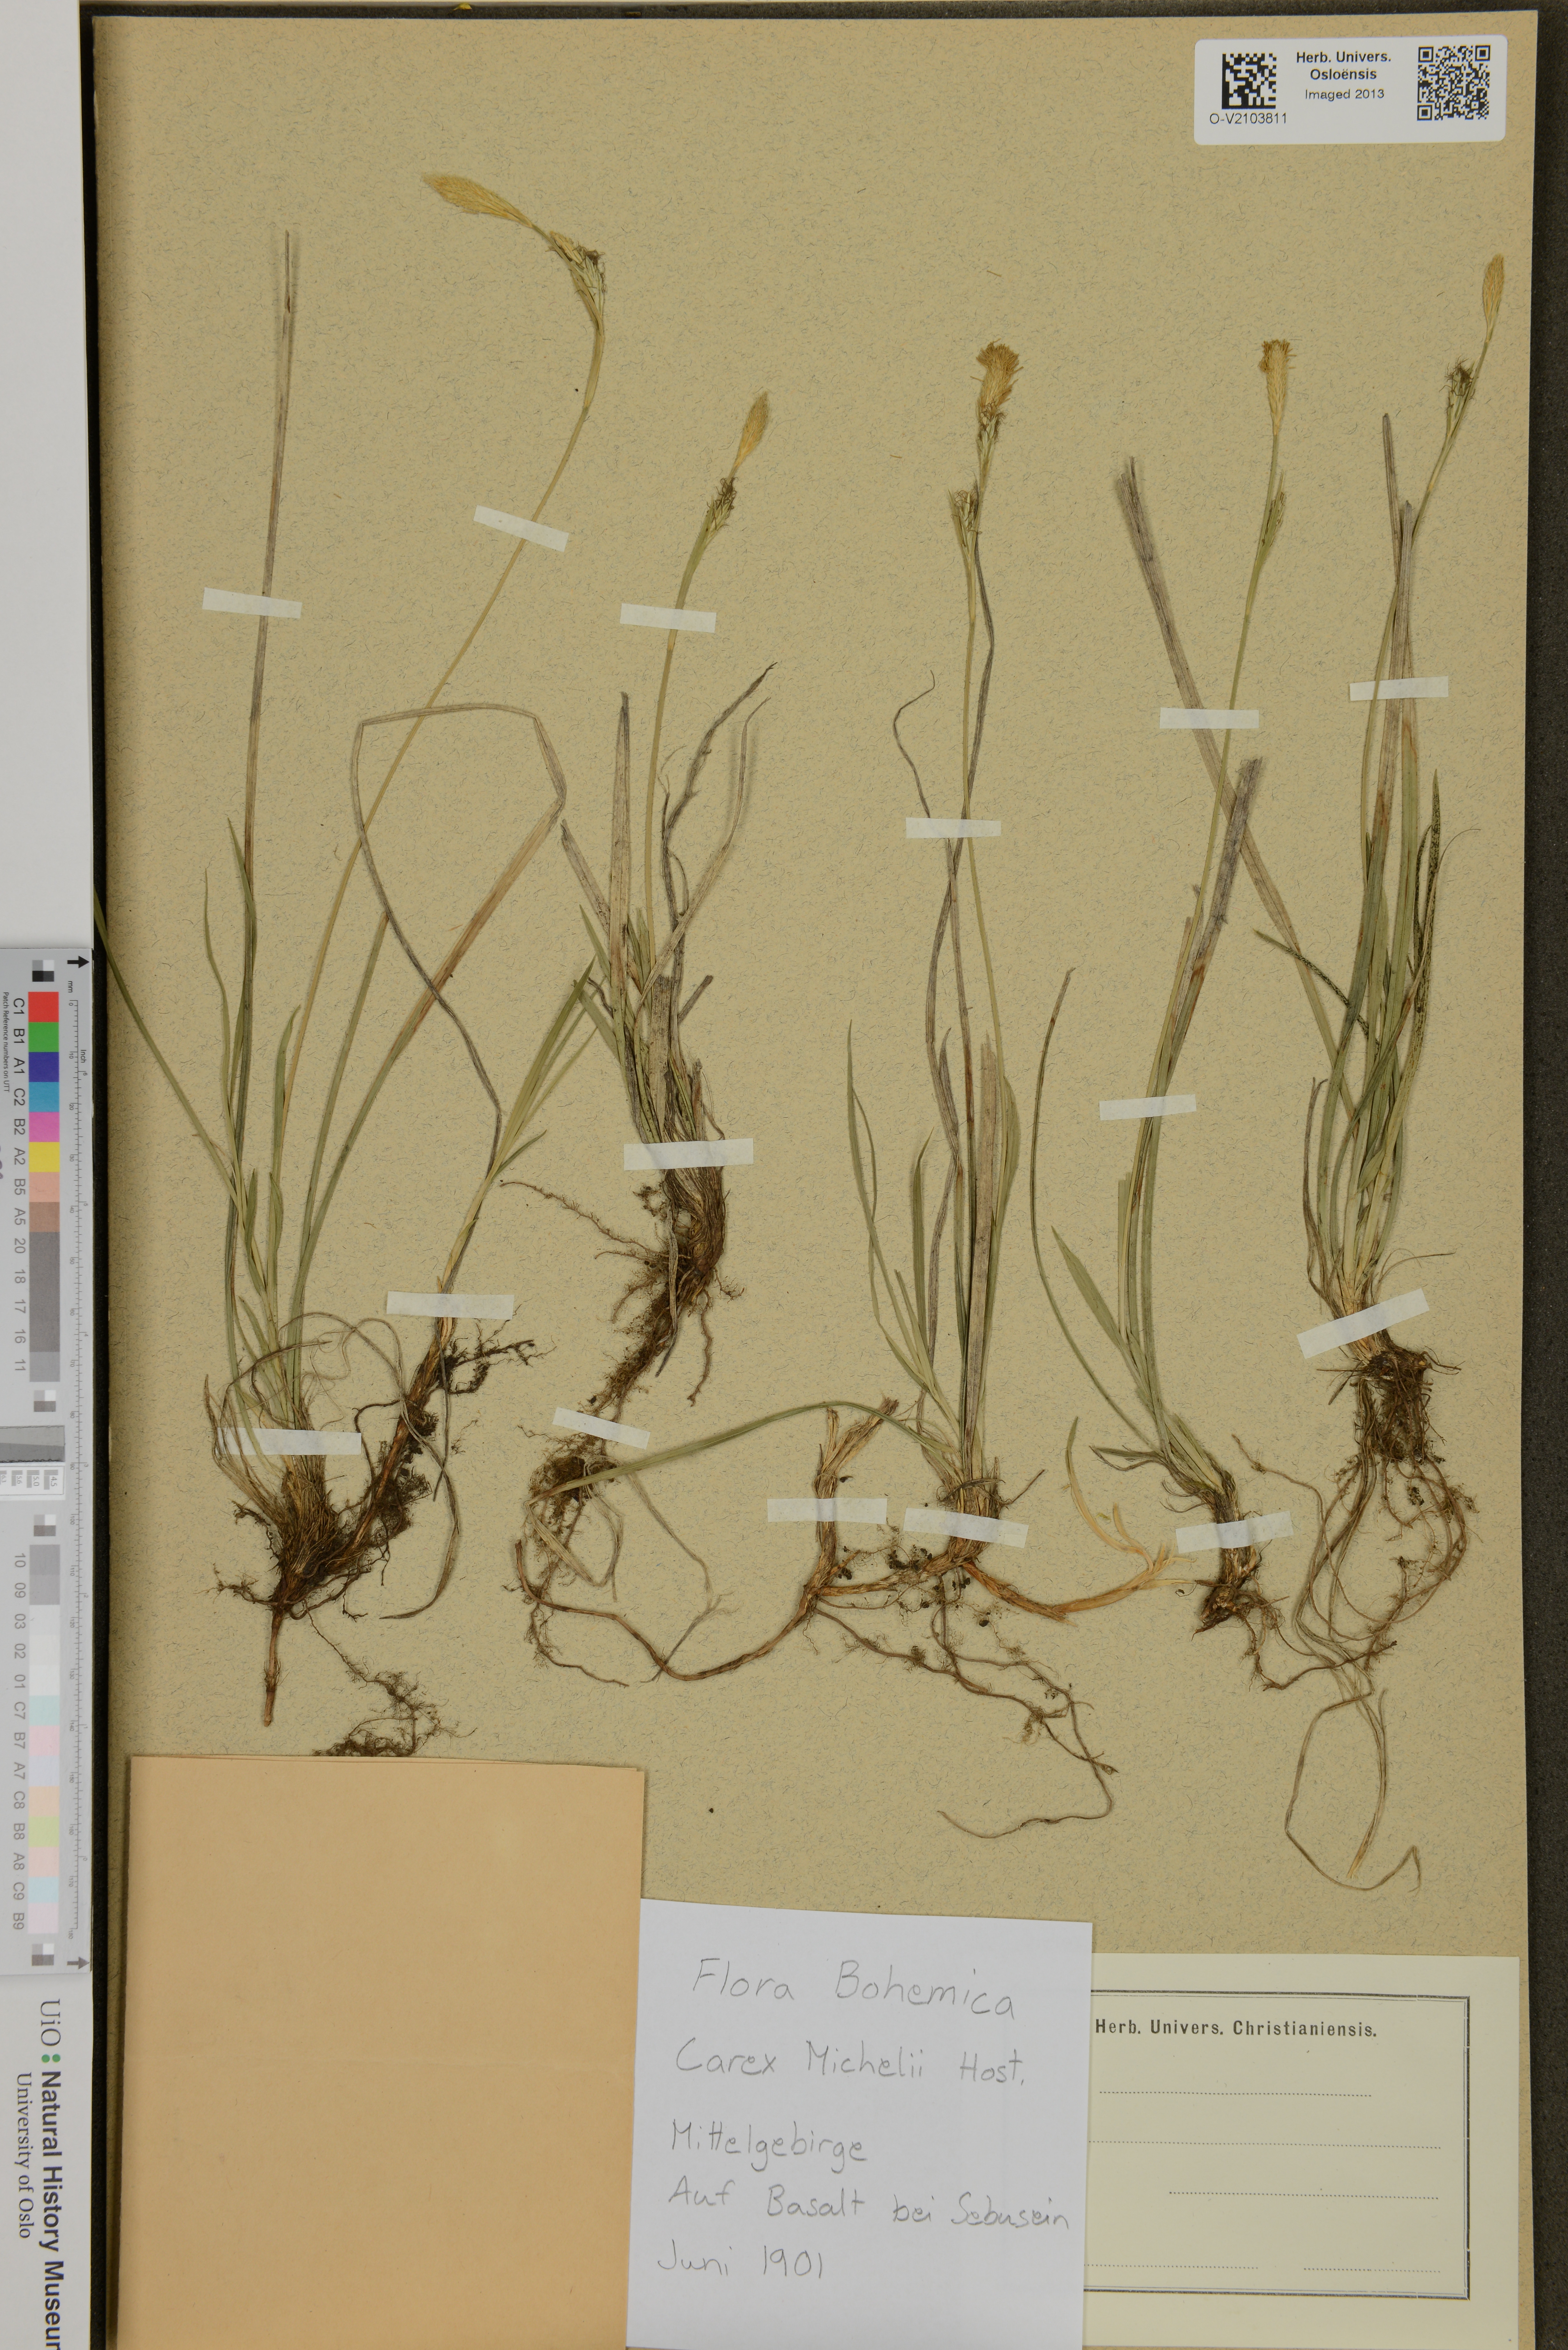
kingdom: Plantae
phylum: Tracheophyta
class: Liliopsida
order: Poales
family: Cyperaceae
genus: Carex
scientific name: Carex michelii
